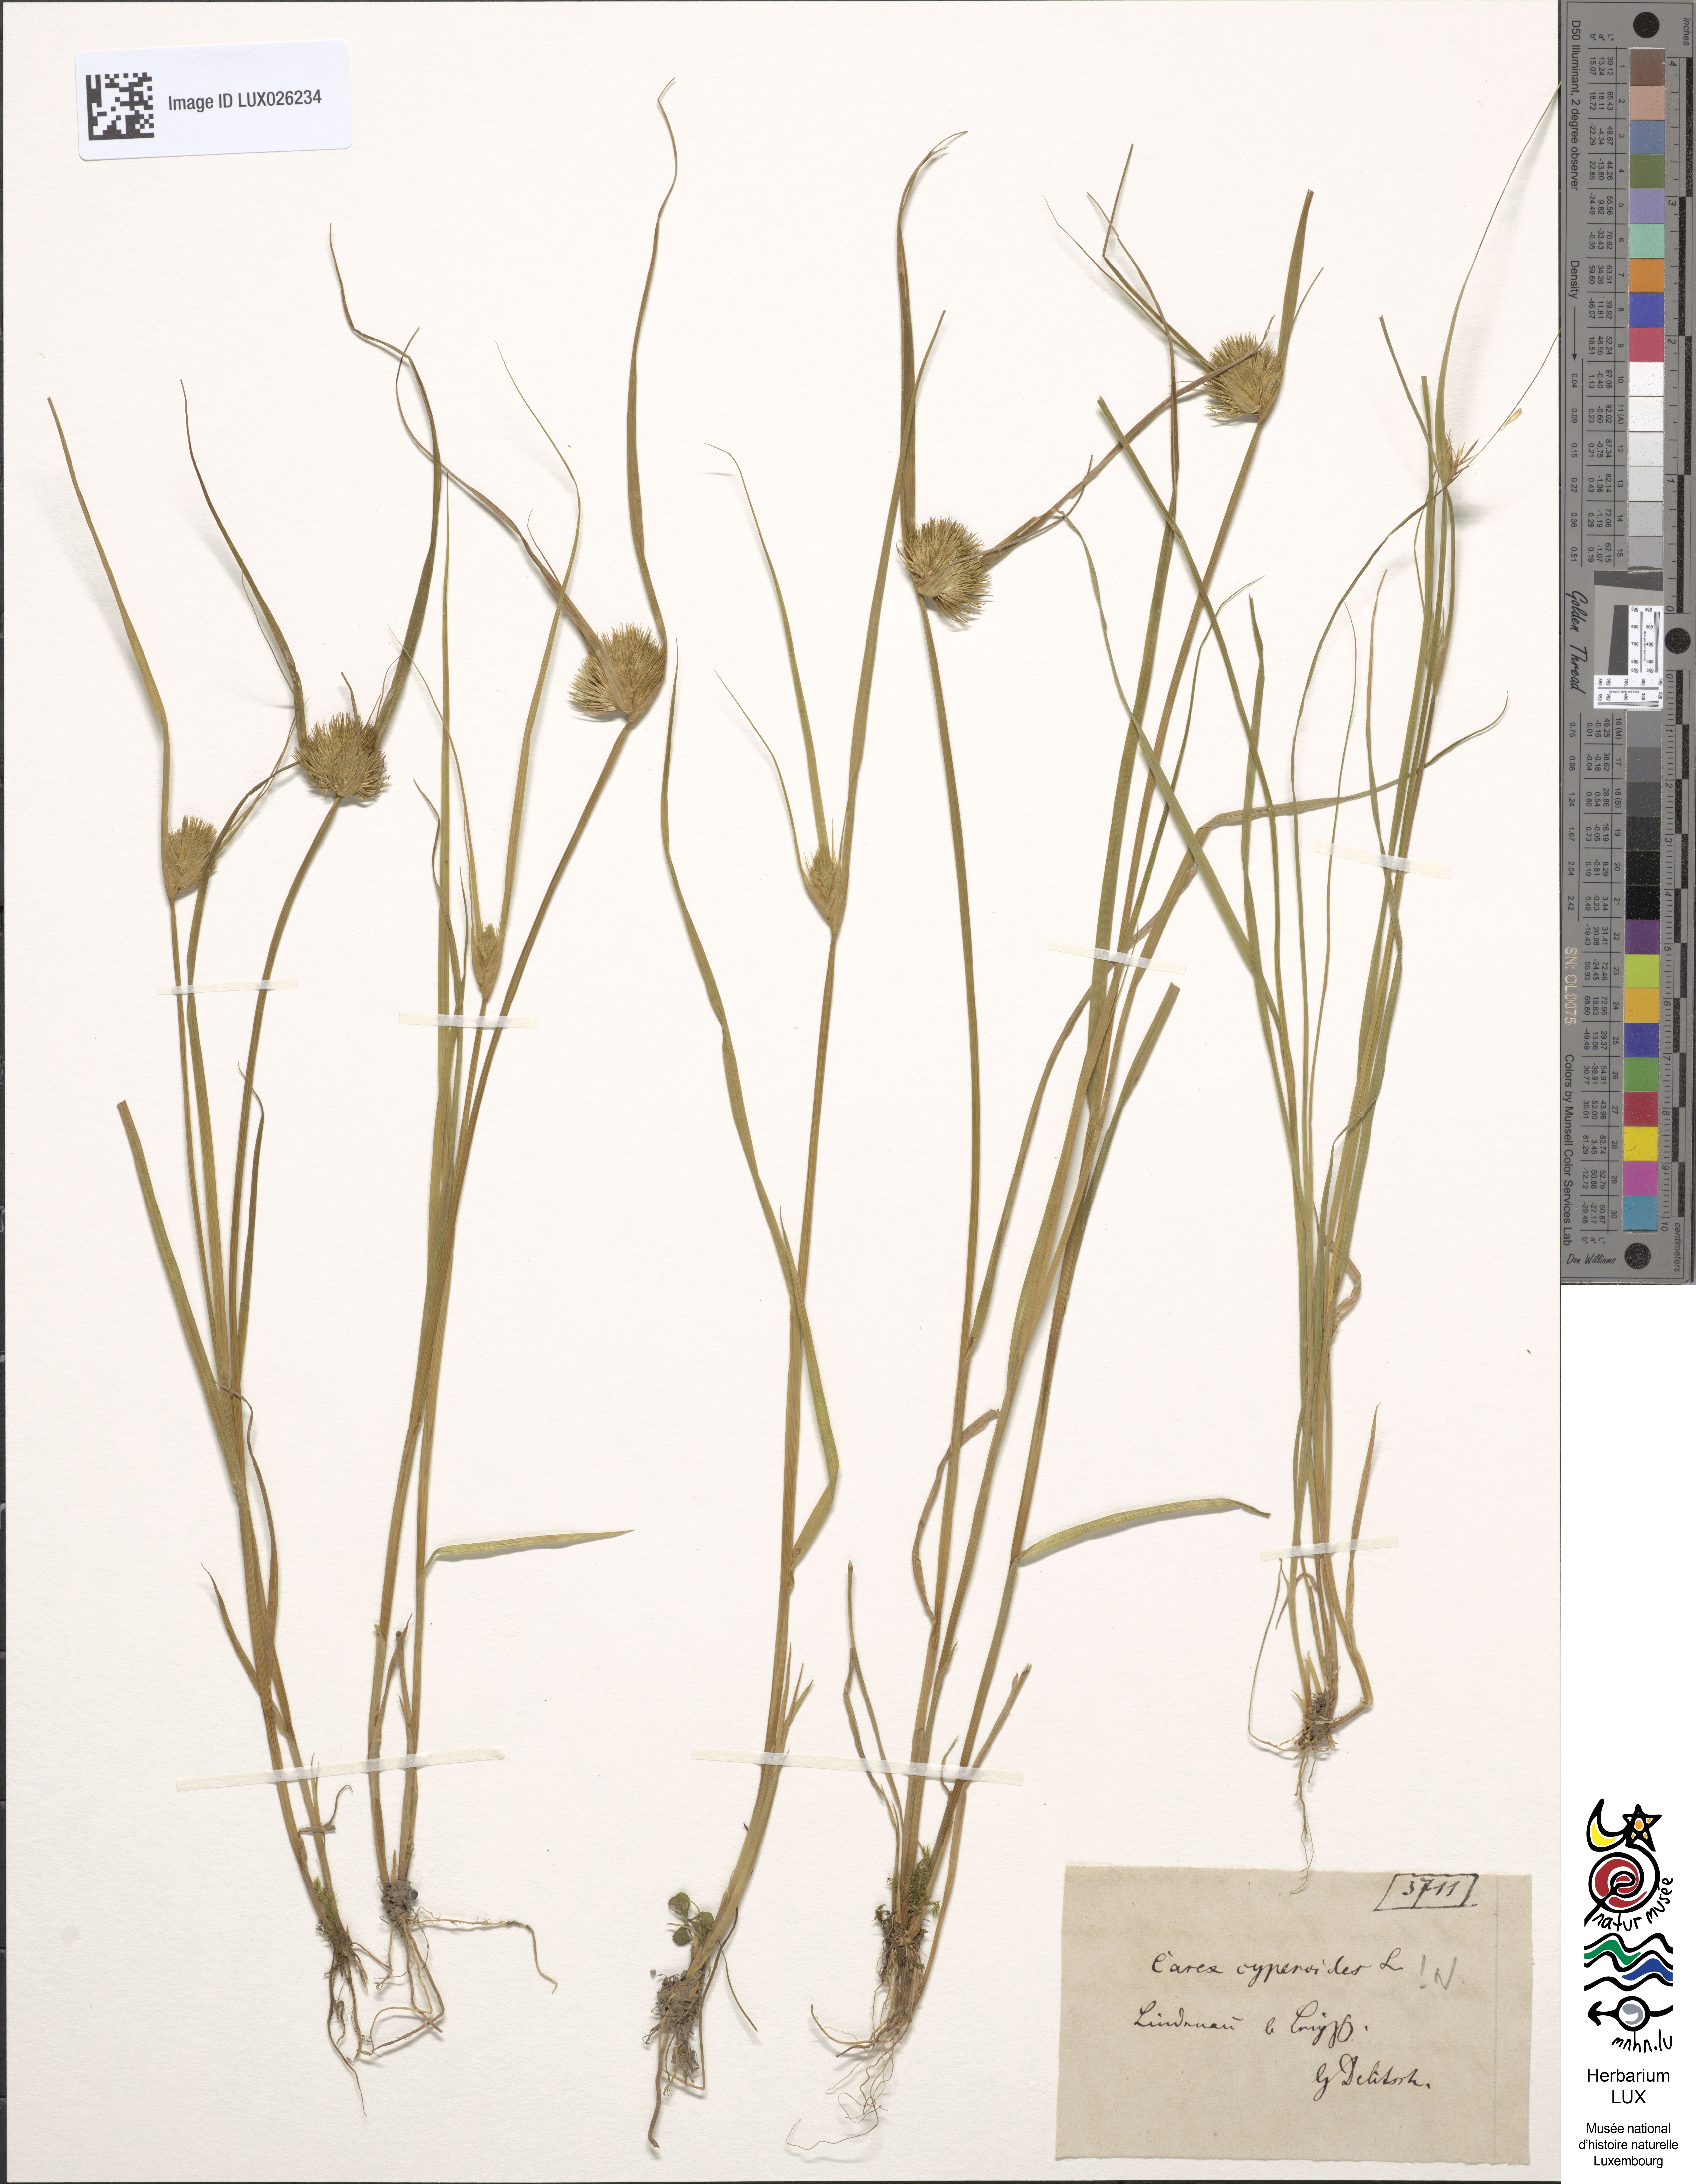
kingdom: Plantae
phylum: Tracheophyta
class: Liliopsida
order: Poales
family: Cyperaceae
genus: Carex
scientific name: Carex bohemica
